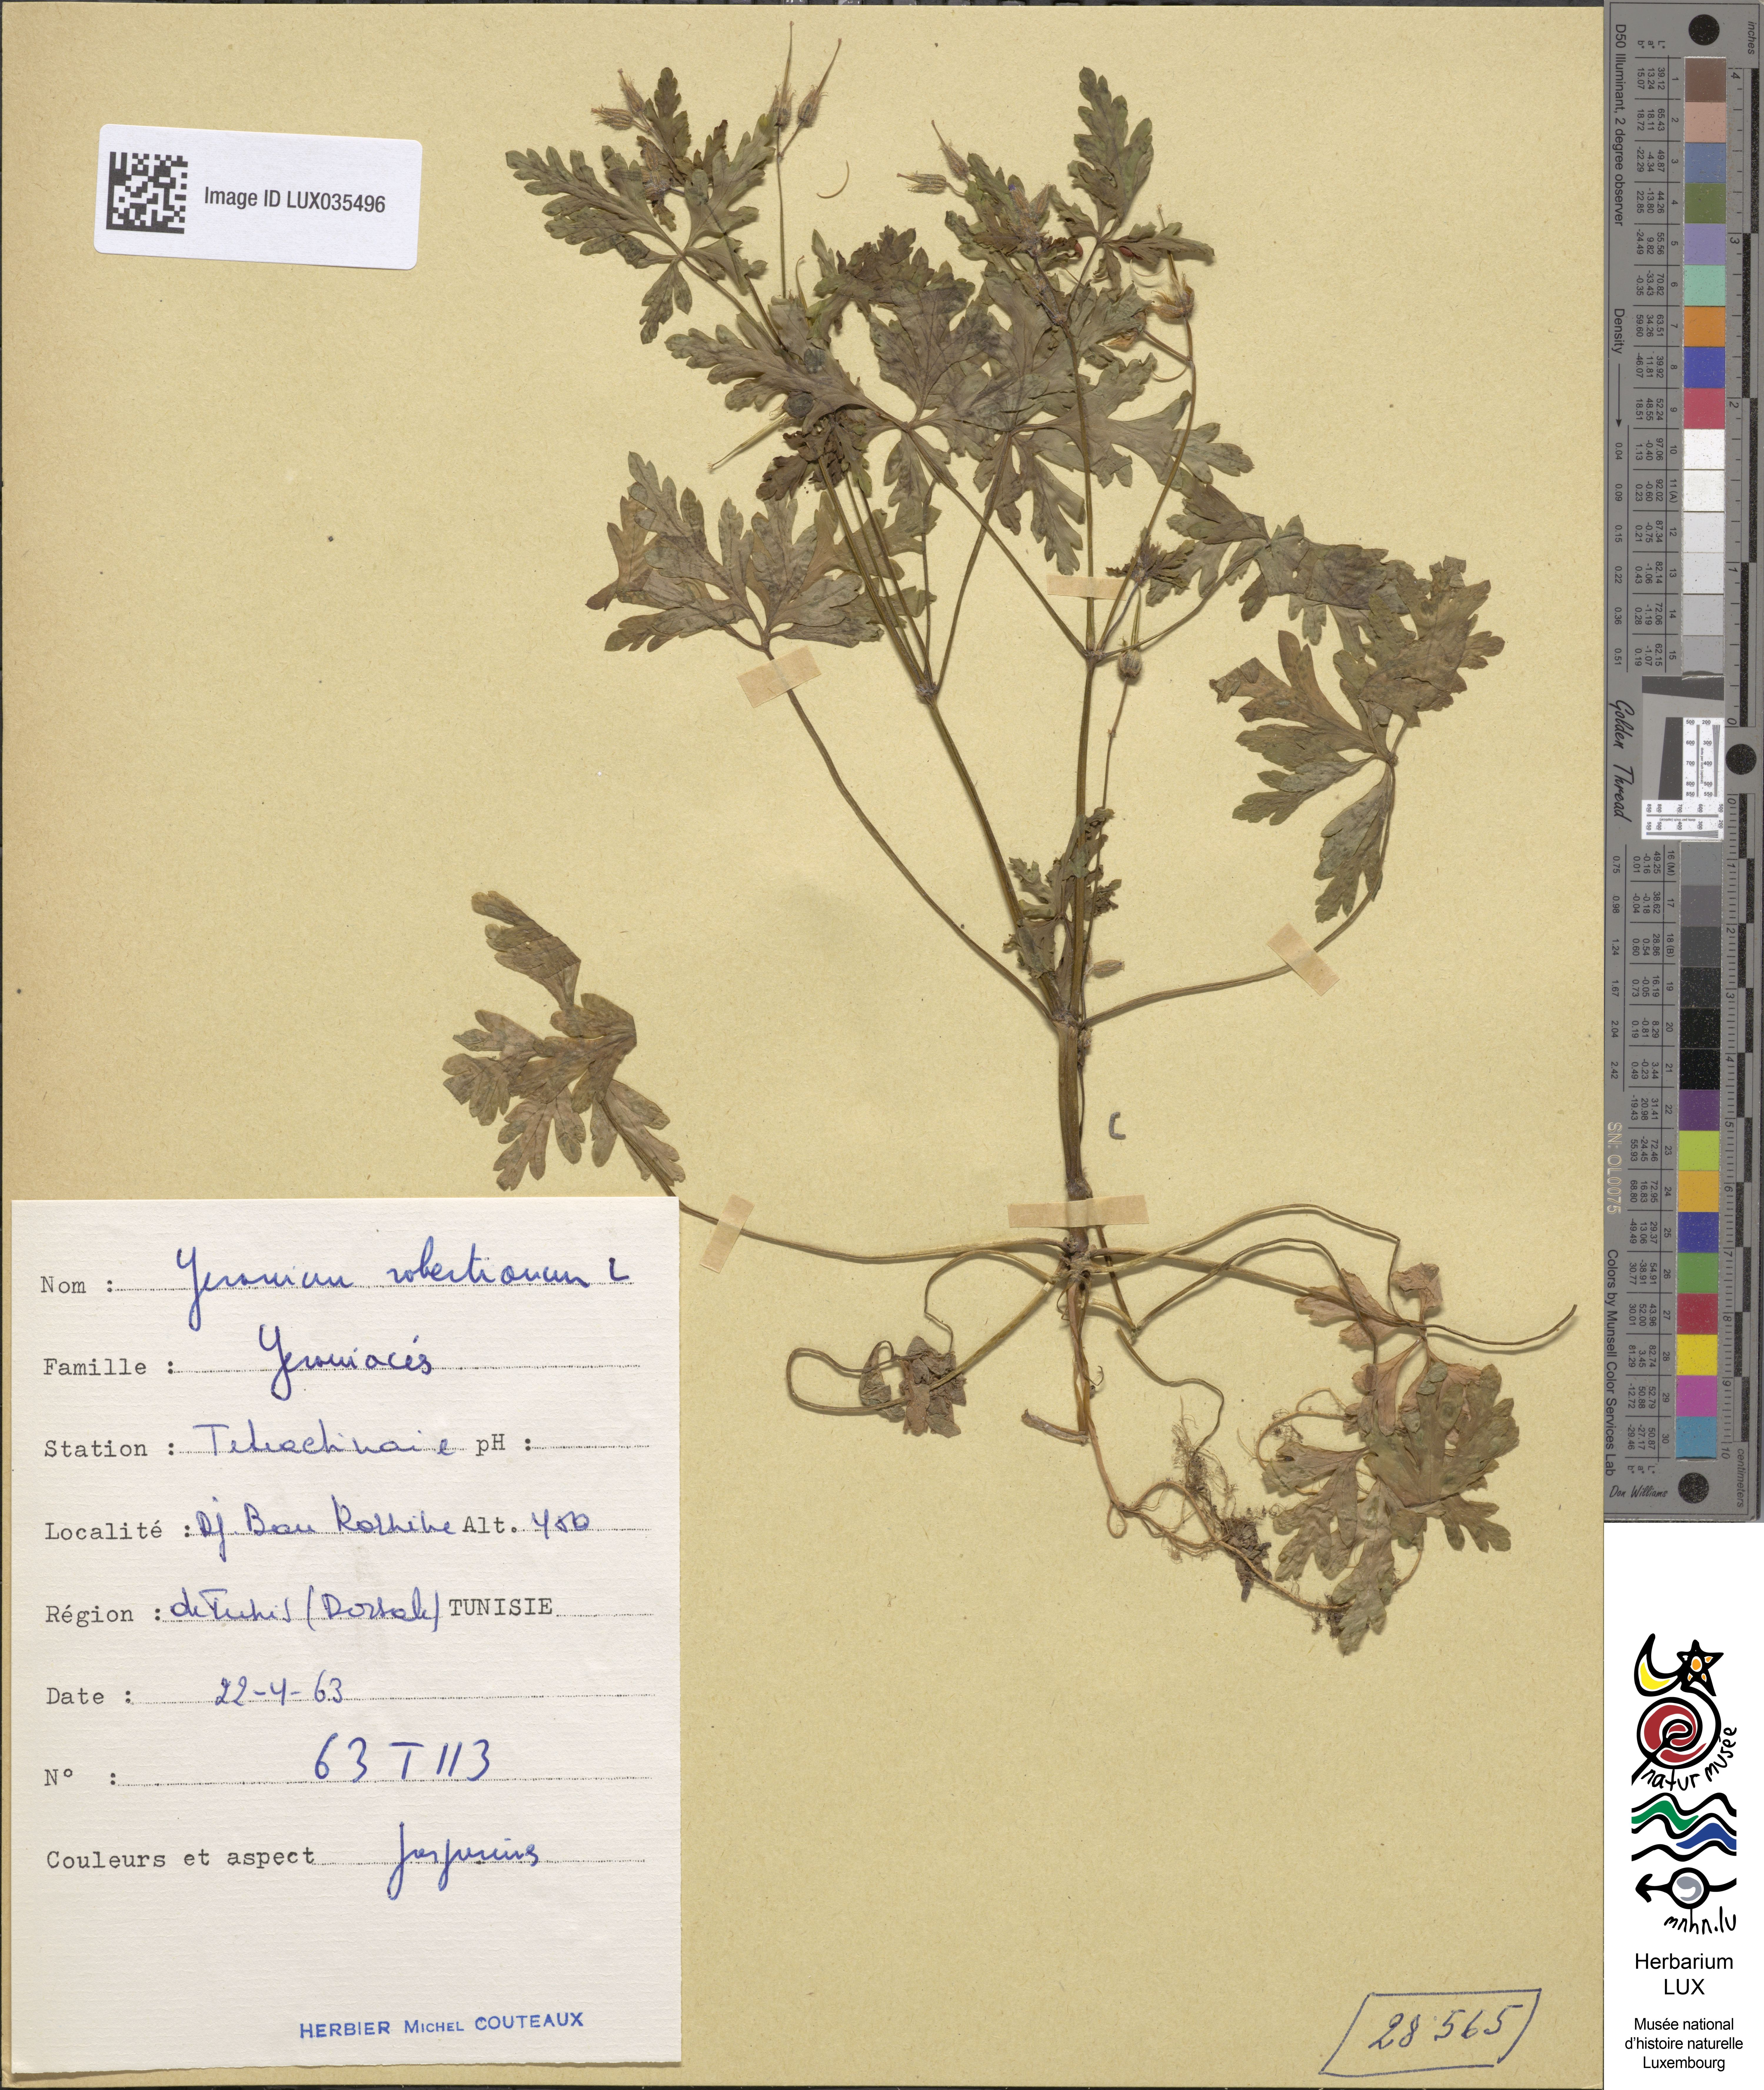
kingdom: Plantae
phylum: Tracheophyta
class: Magnoliopsida
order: Geraniales
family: Geraniaceae
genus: Geranium
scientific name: Geranium robertianum
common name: Herb-robert
